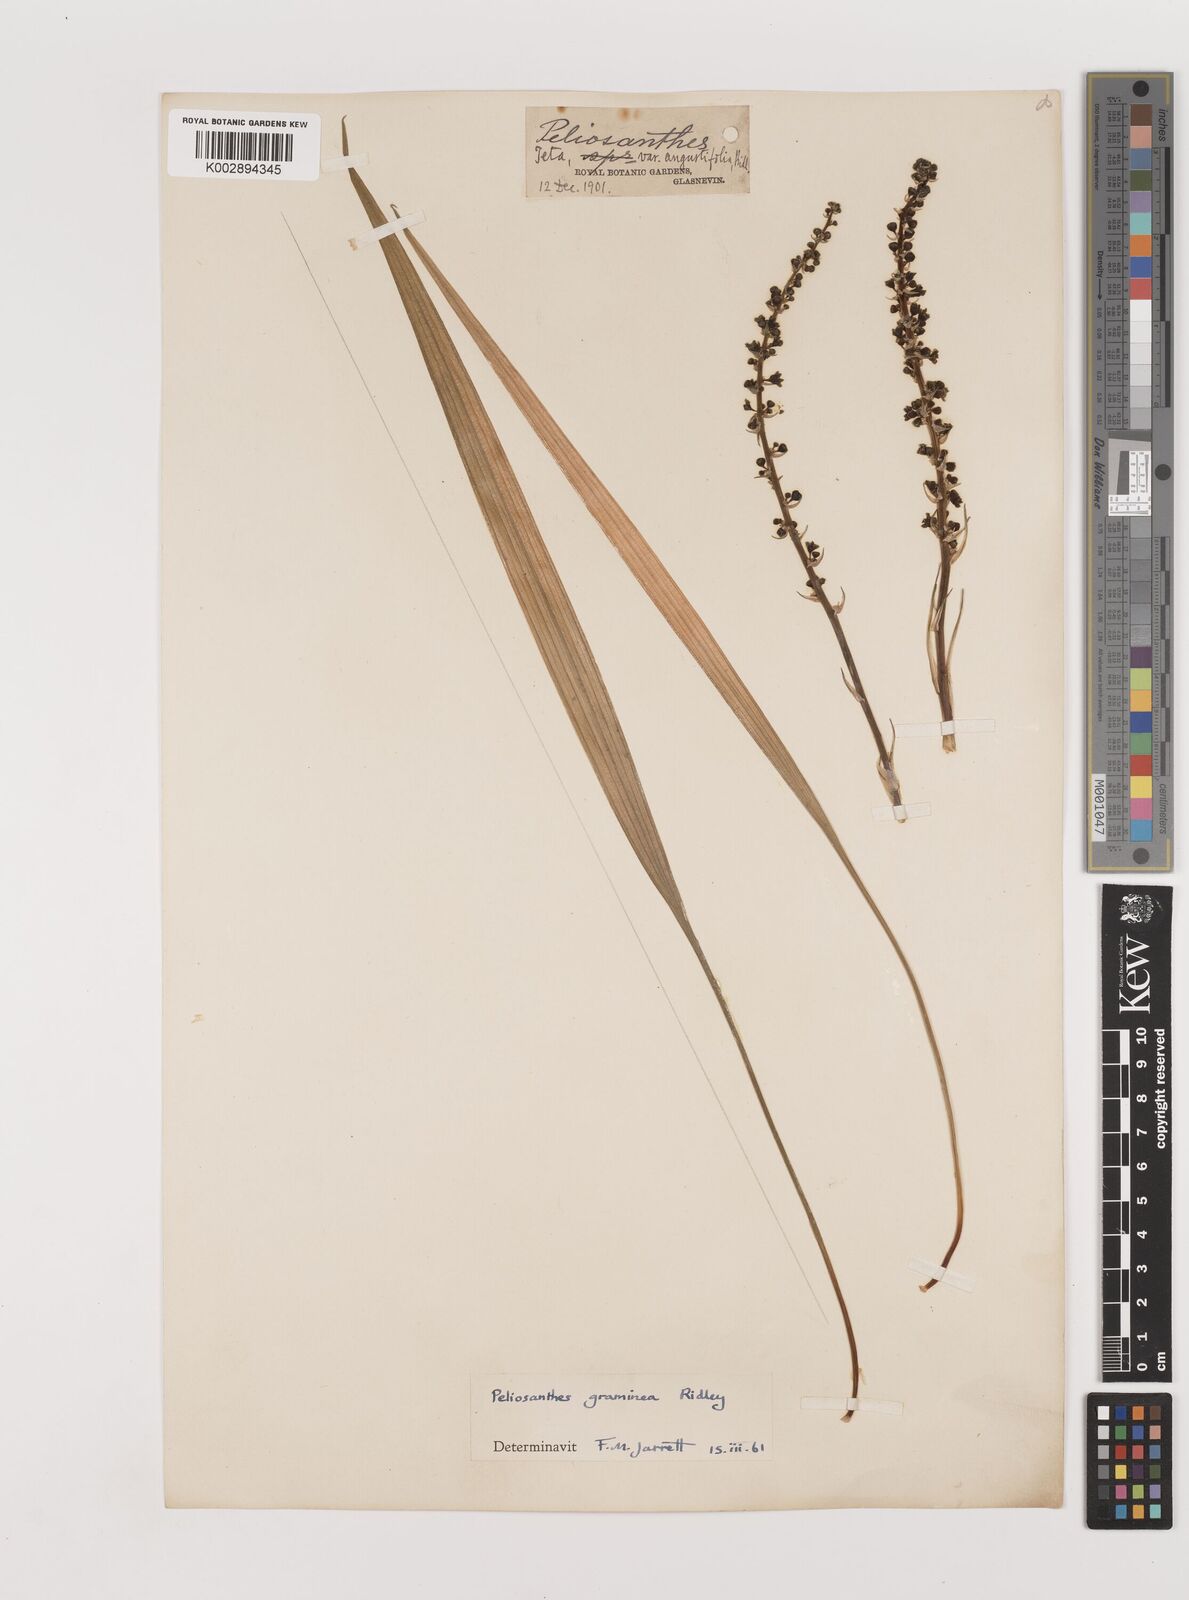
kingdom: Plantae
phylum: Tracheophyta
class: Liliopsida
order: Asparagales
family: Asparagaceae
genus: Peliosanthes
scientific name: Peliosanthes teta
